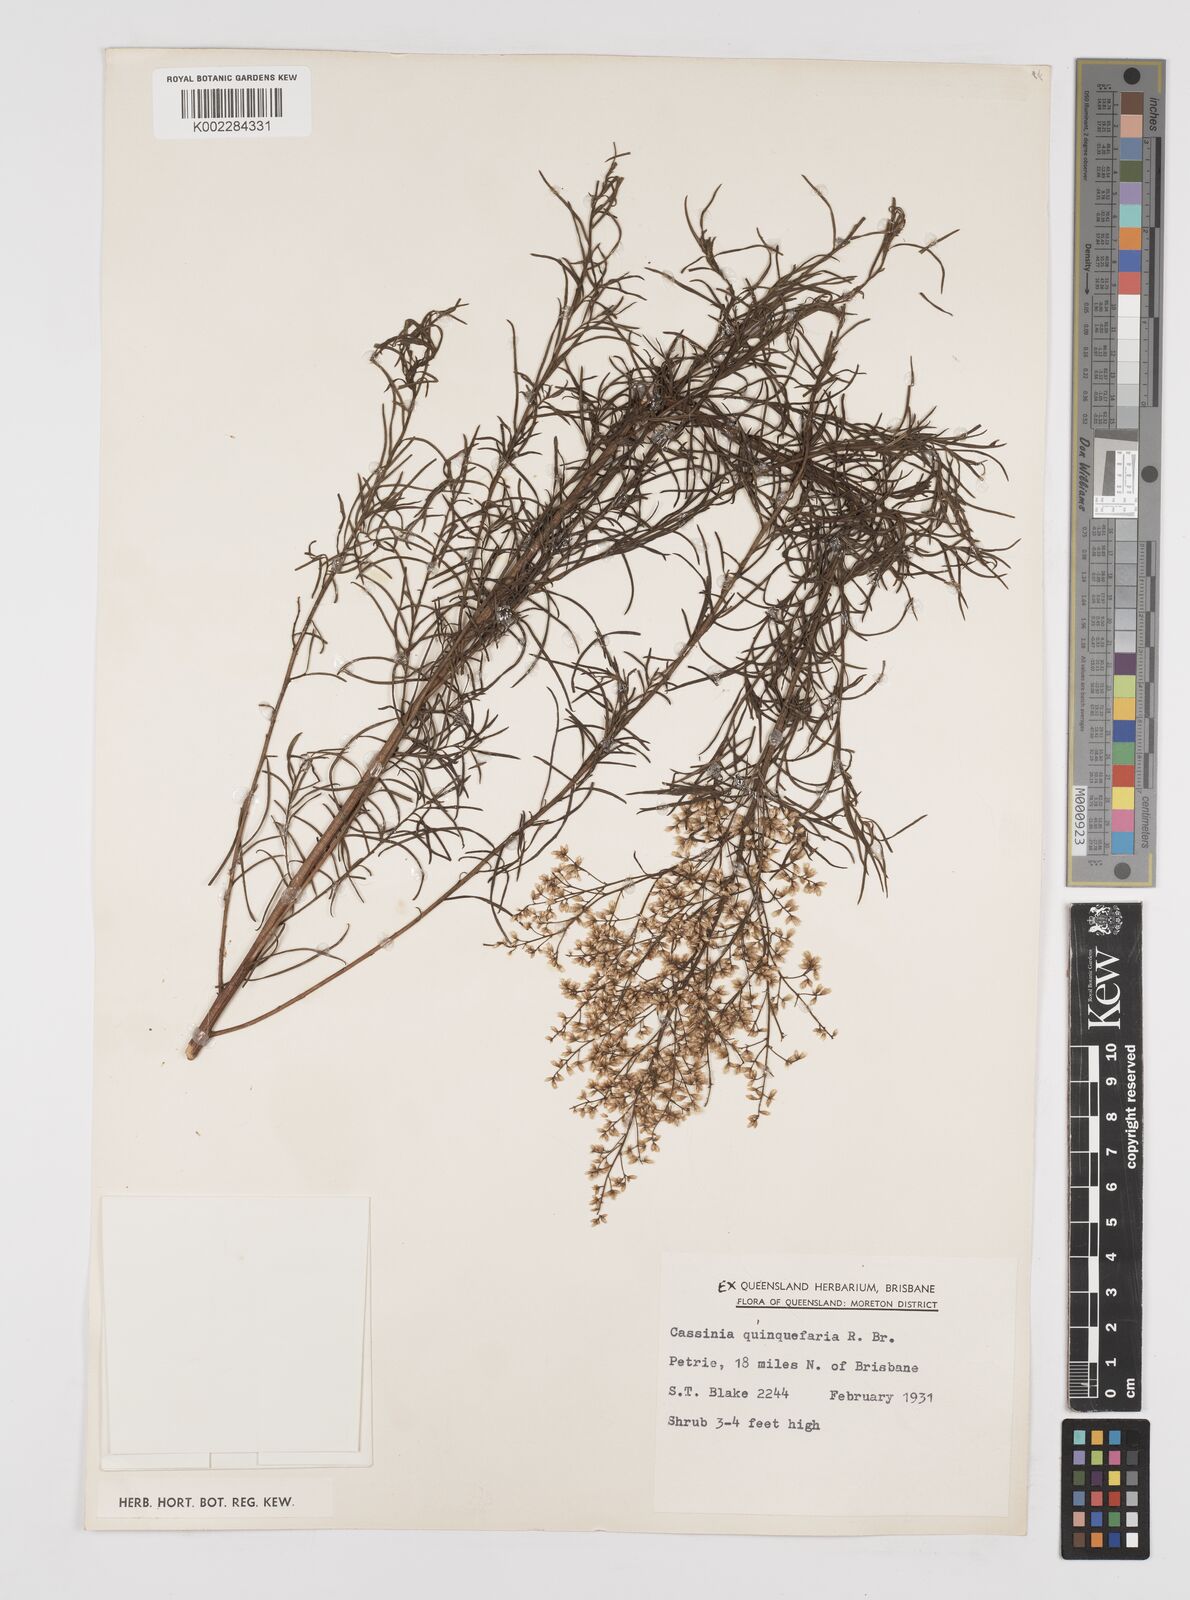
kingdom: Plantae
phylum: Tracheophyta
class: Magnoliopsida
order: Asterales
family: Asteraceae
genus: Cassinia
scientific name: Cassinia quinquefaria
